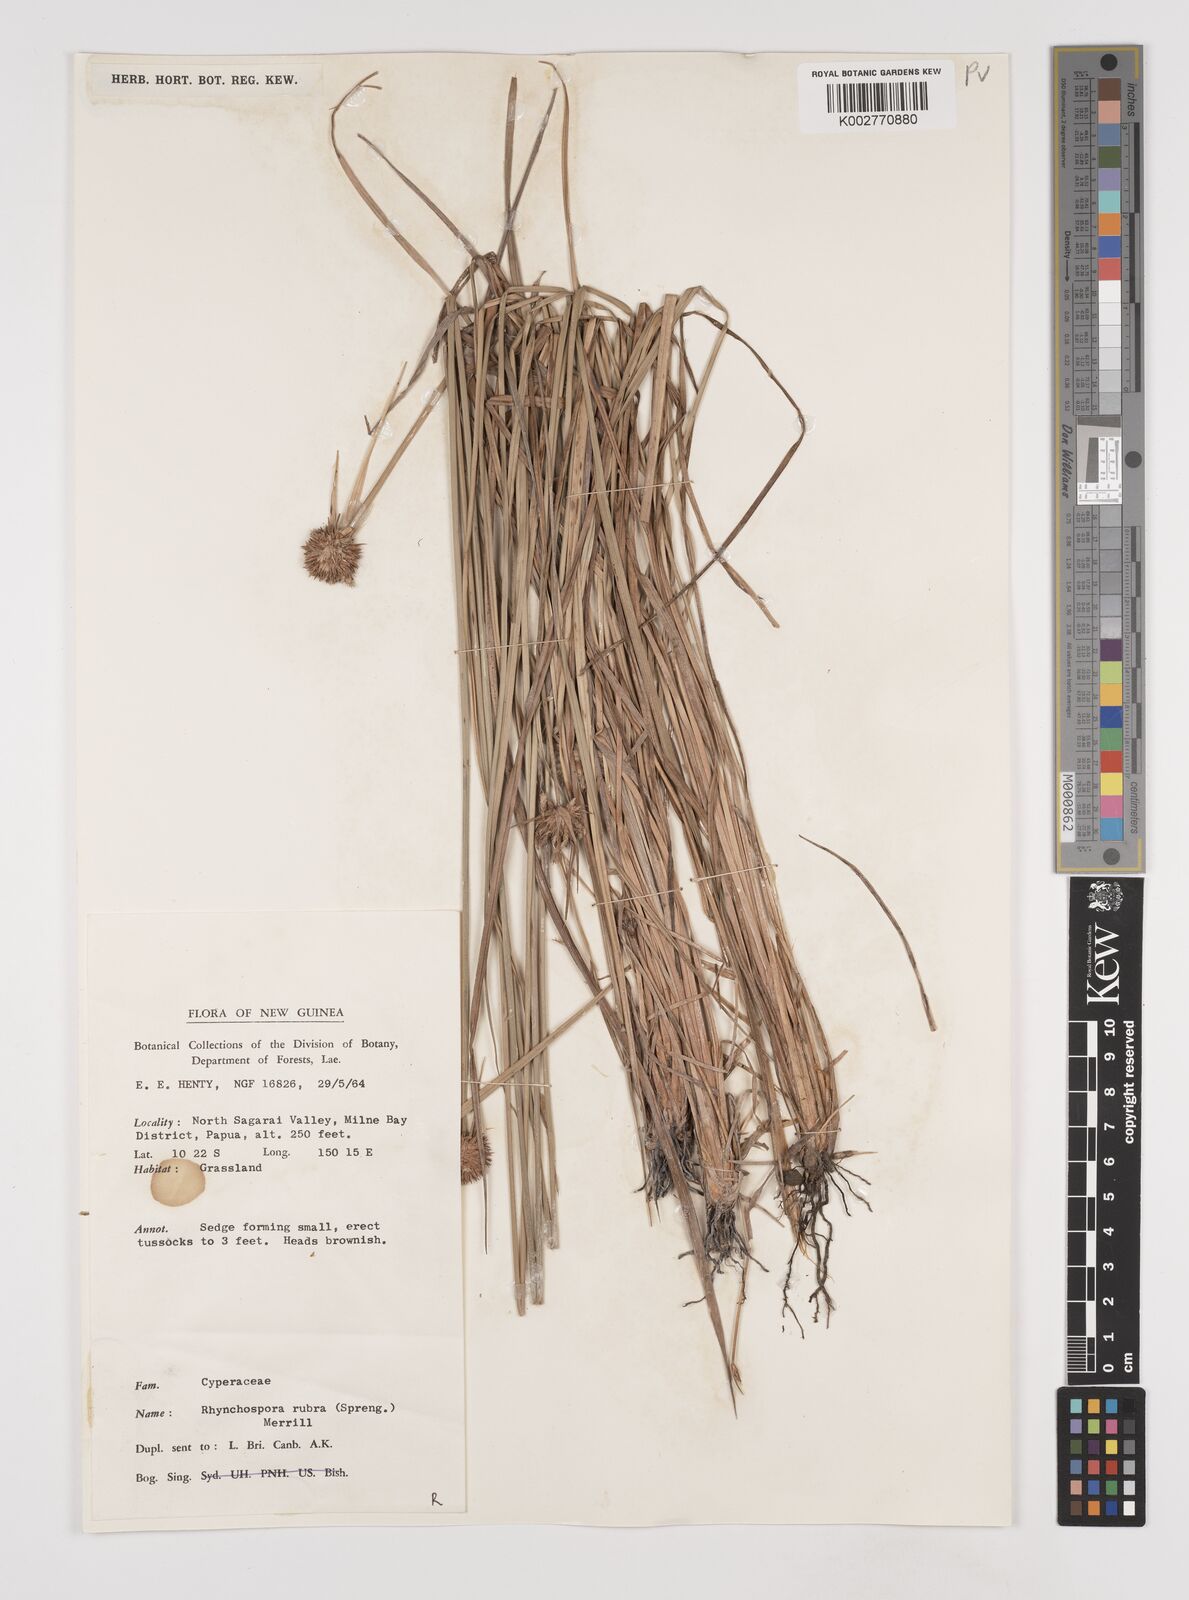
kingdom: Plantae
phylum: Tracheophyta
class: Liliopsida
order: Poales
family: Cyperaceae
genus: Rhynchospora
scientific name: Rhynchospora rubra
